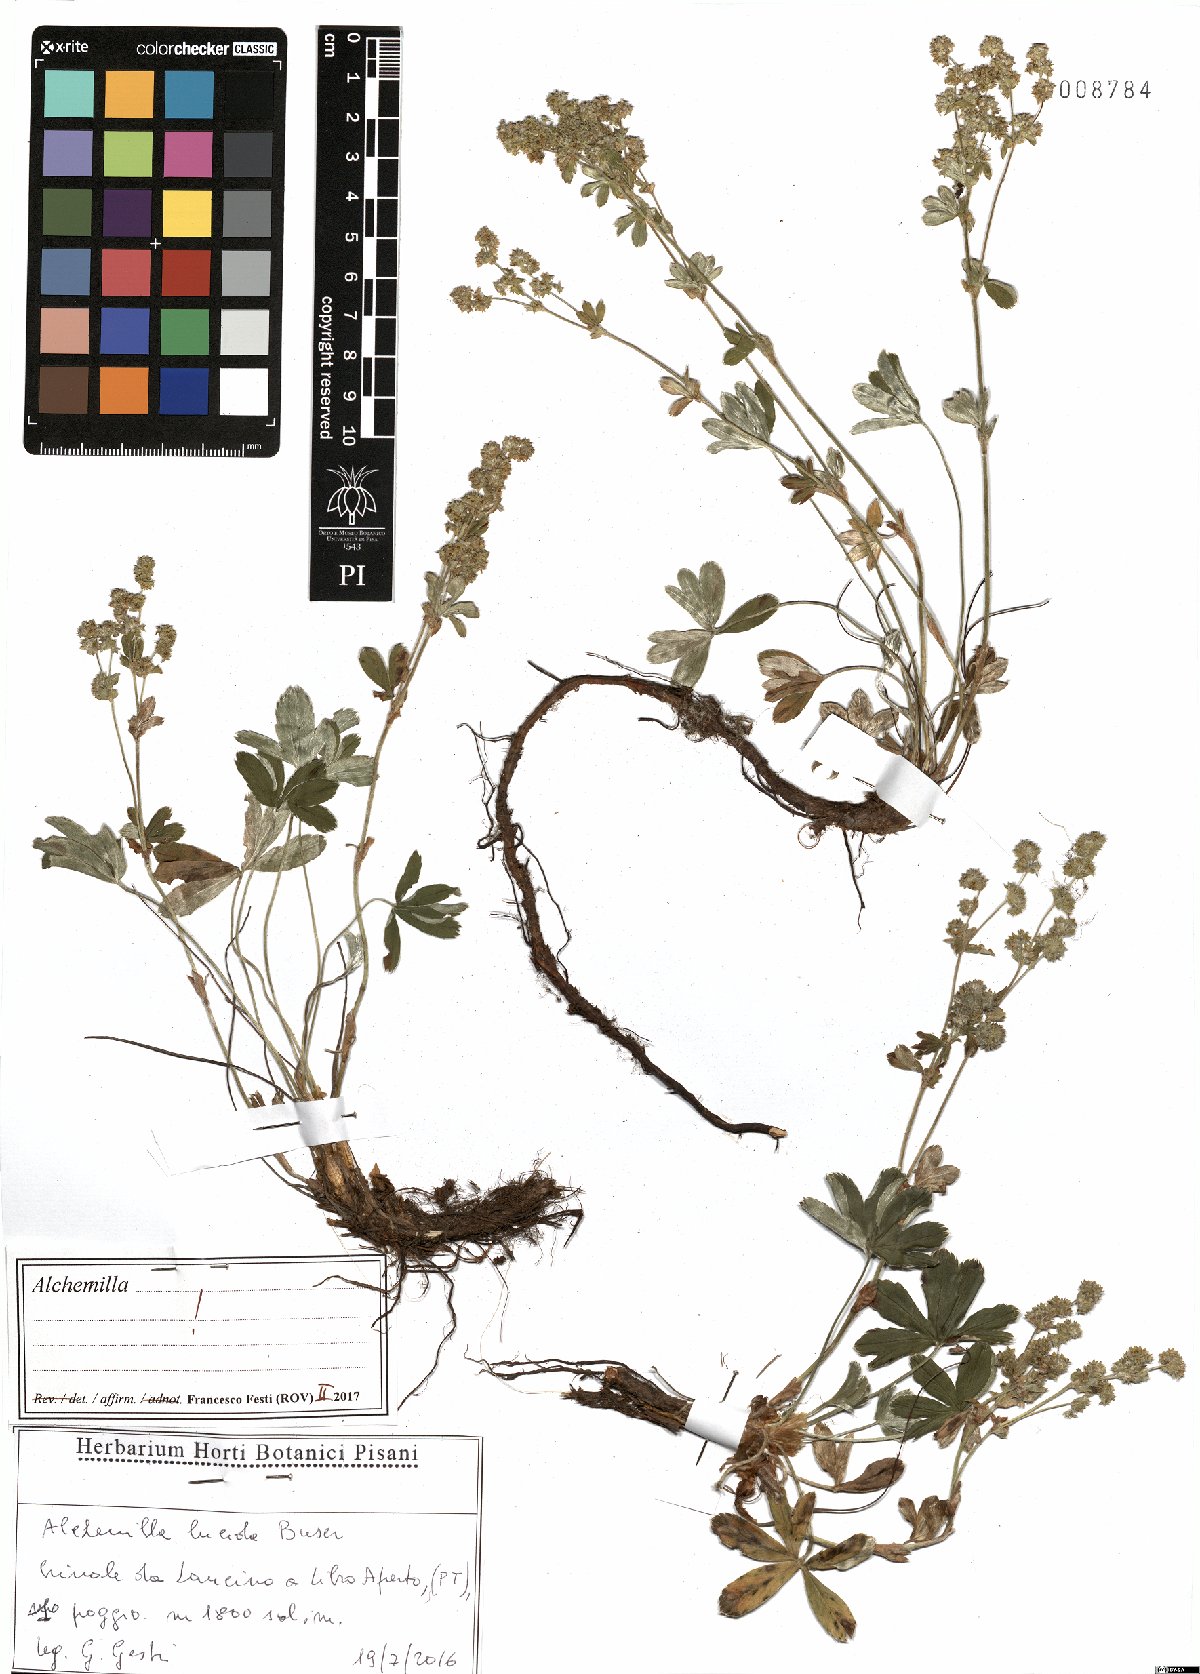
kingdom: Plantae
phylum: Tracheophyta
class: Magnoliopsida
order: Rosales
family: Rosaceae
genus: Alchemilla
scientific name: Alchemilla lucida
